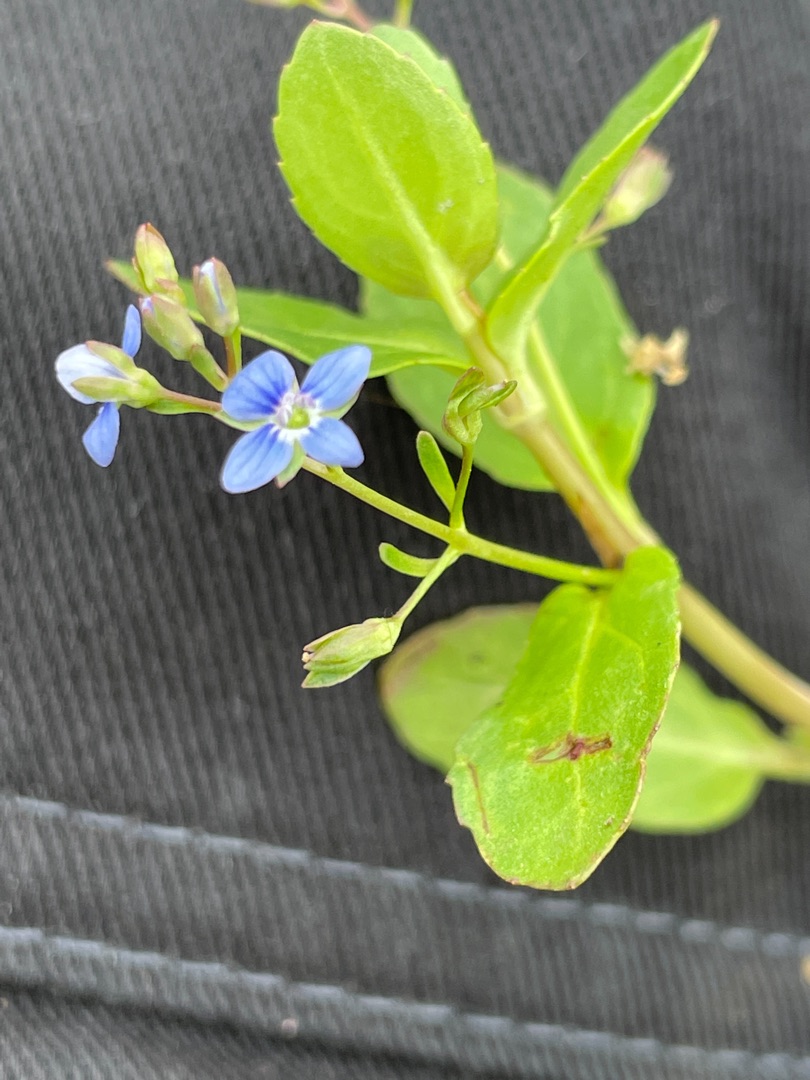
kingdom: Plantae
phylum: Tracheophyta
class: Magnoliopsida
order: Lamiales
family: Plantaginaceae
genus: Veronica
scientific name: Veronica beccabunga
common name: Tykbladet ærenpris
